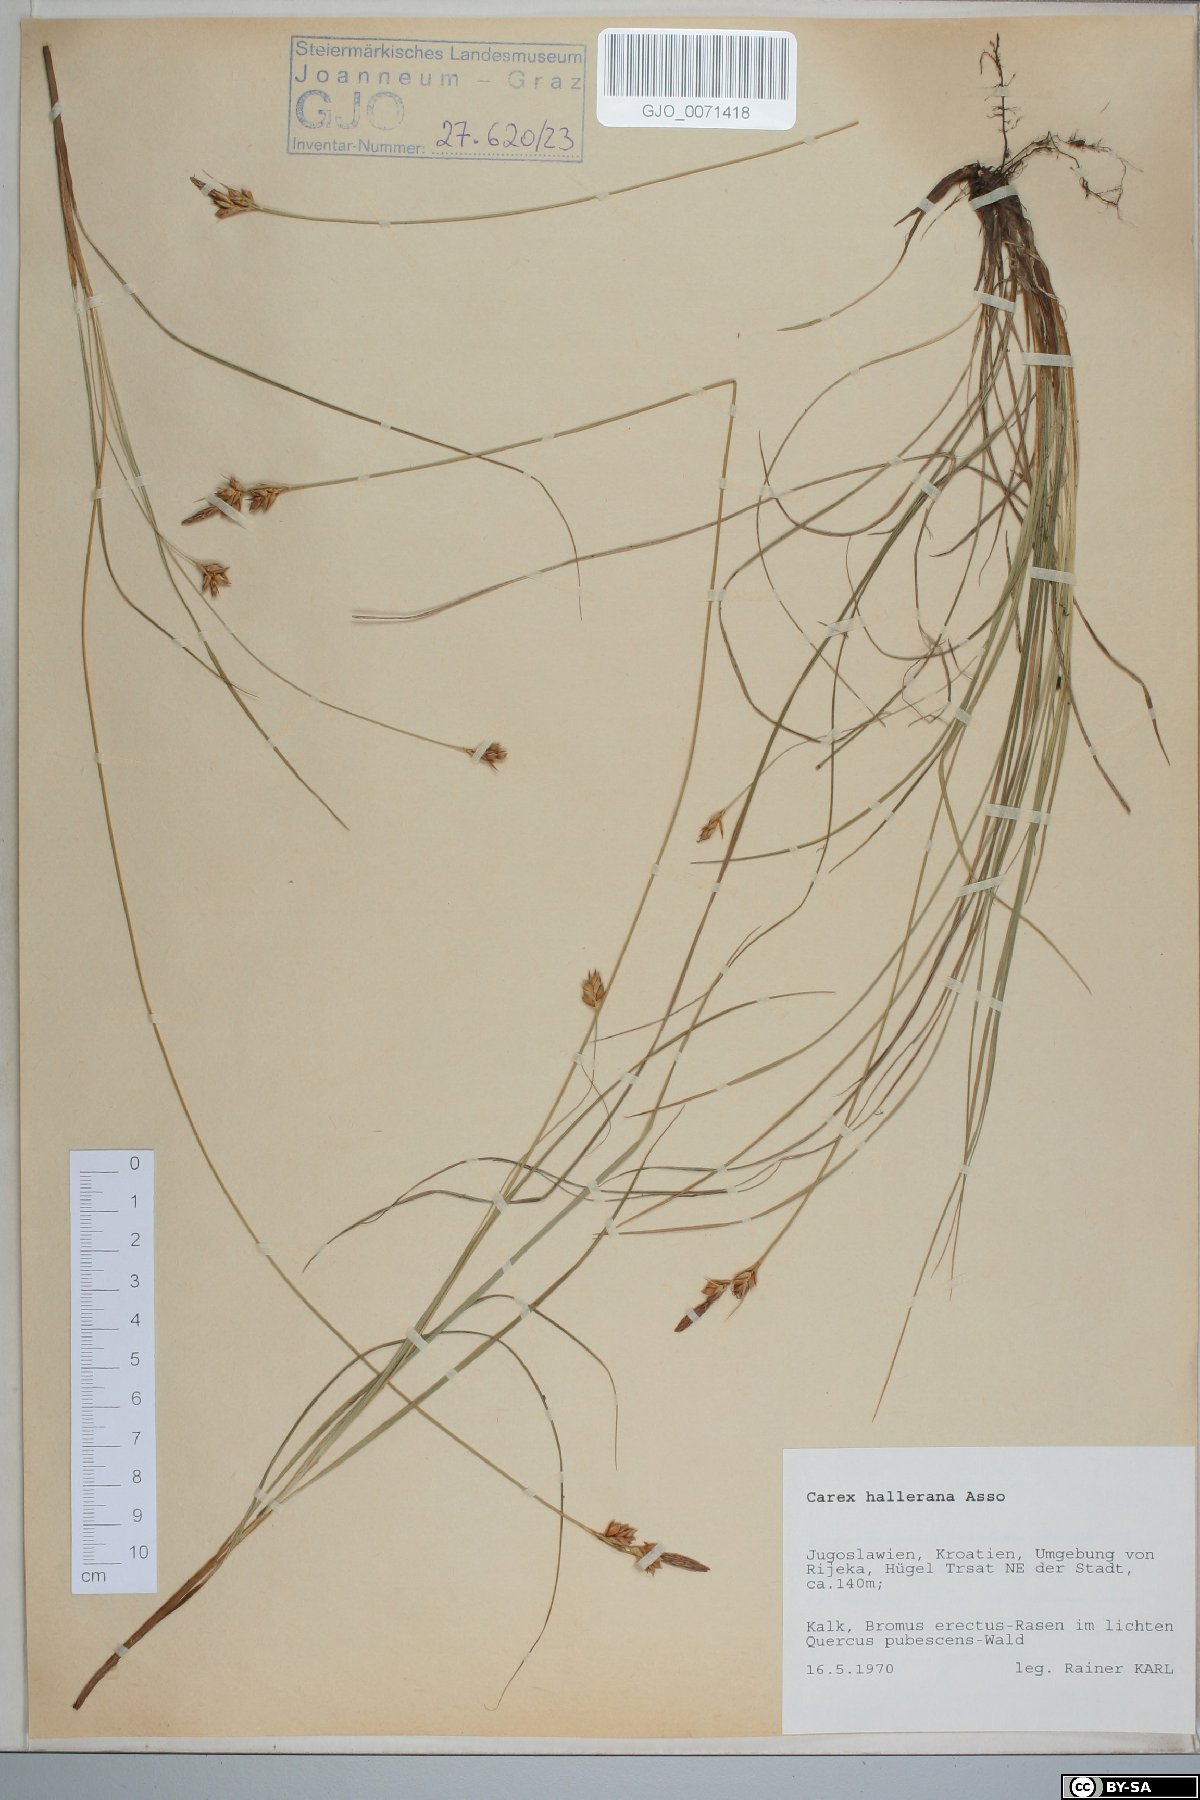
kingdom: Plantae
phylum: Tracheophyta
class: Liliopsida
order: Poales
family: Cyperaceae
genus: Carex
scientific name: Carex halleriana
